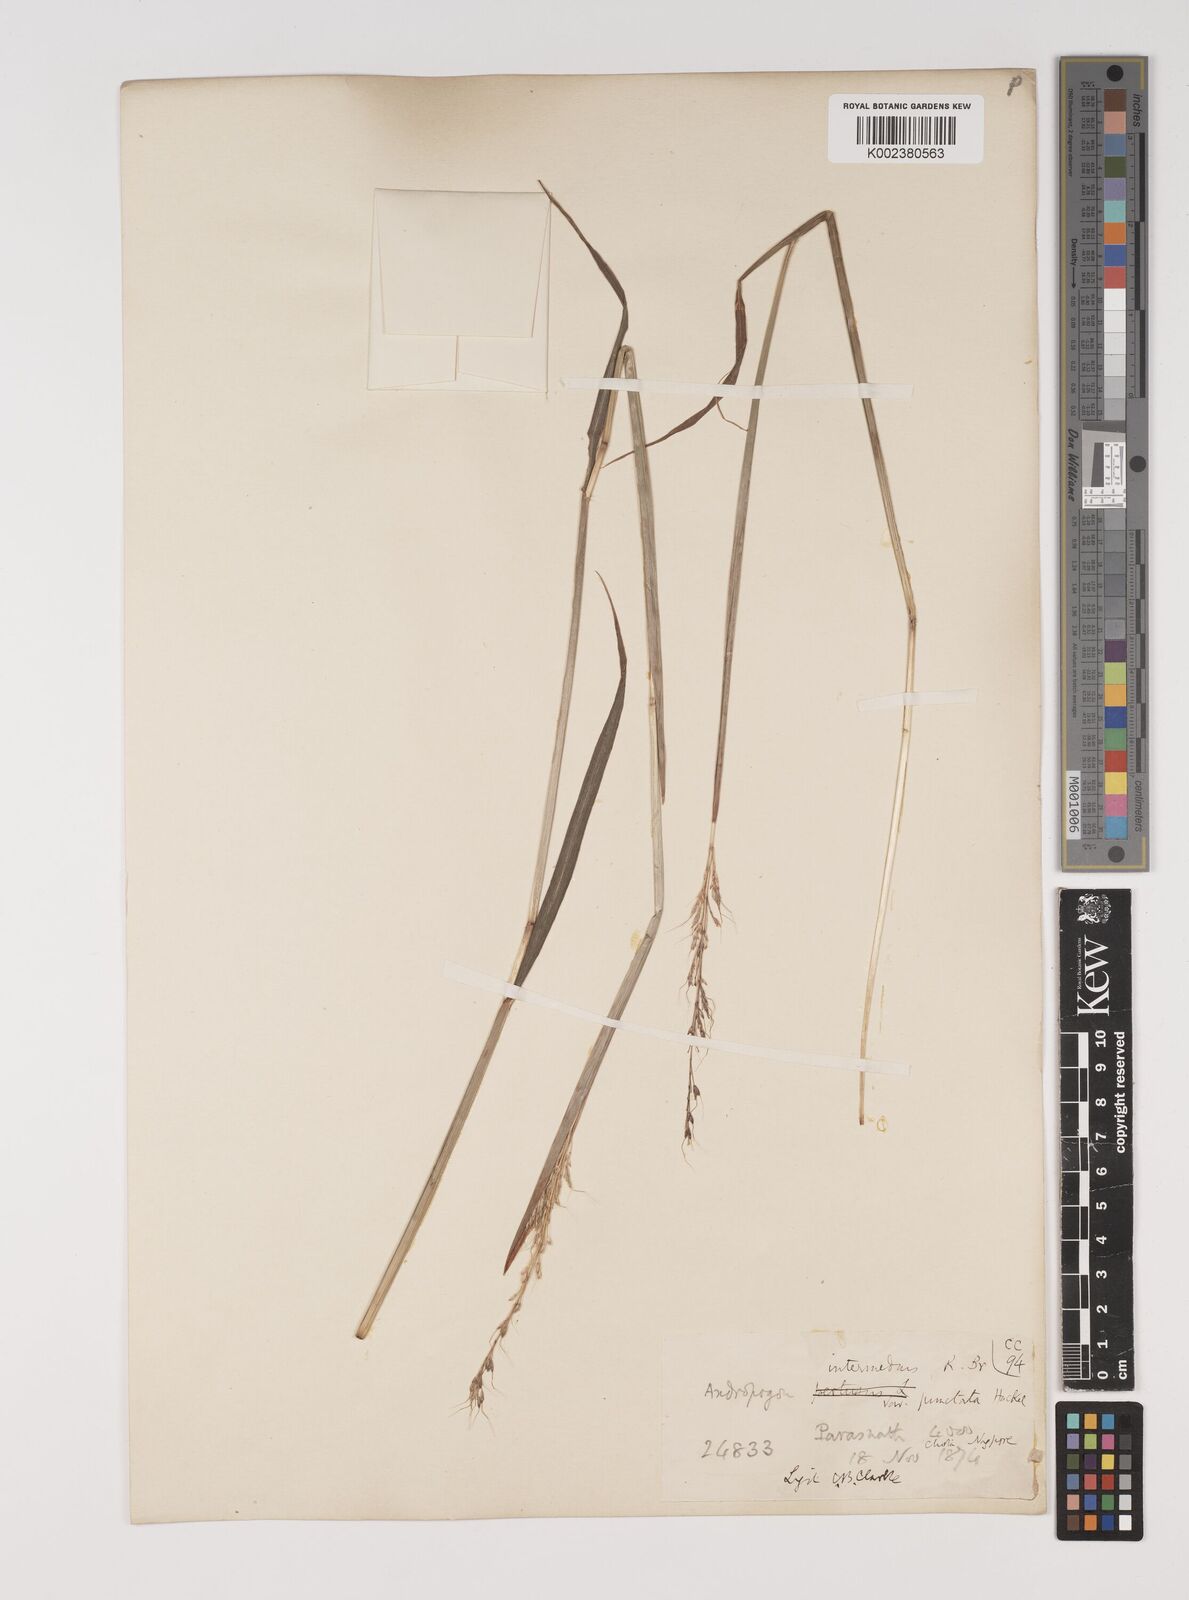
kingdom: Plantae
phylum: Tracheophyta
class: Liliopsida
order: Poales
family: Poaceae
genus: Bothriochloa
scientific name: Bothriochloa bladhii
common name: Caucasian bluestem
